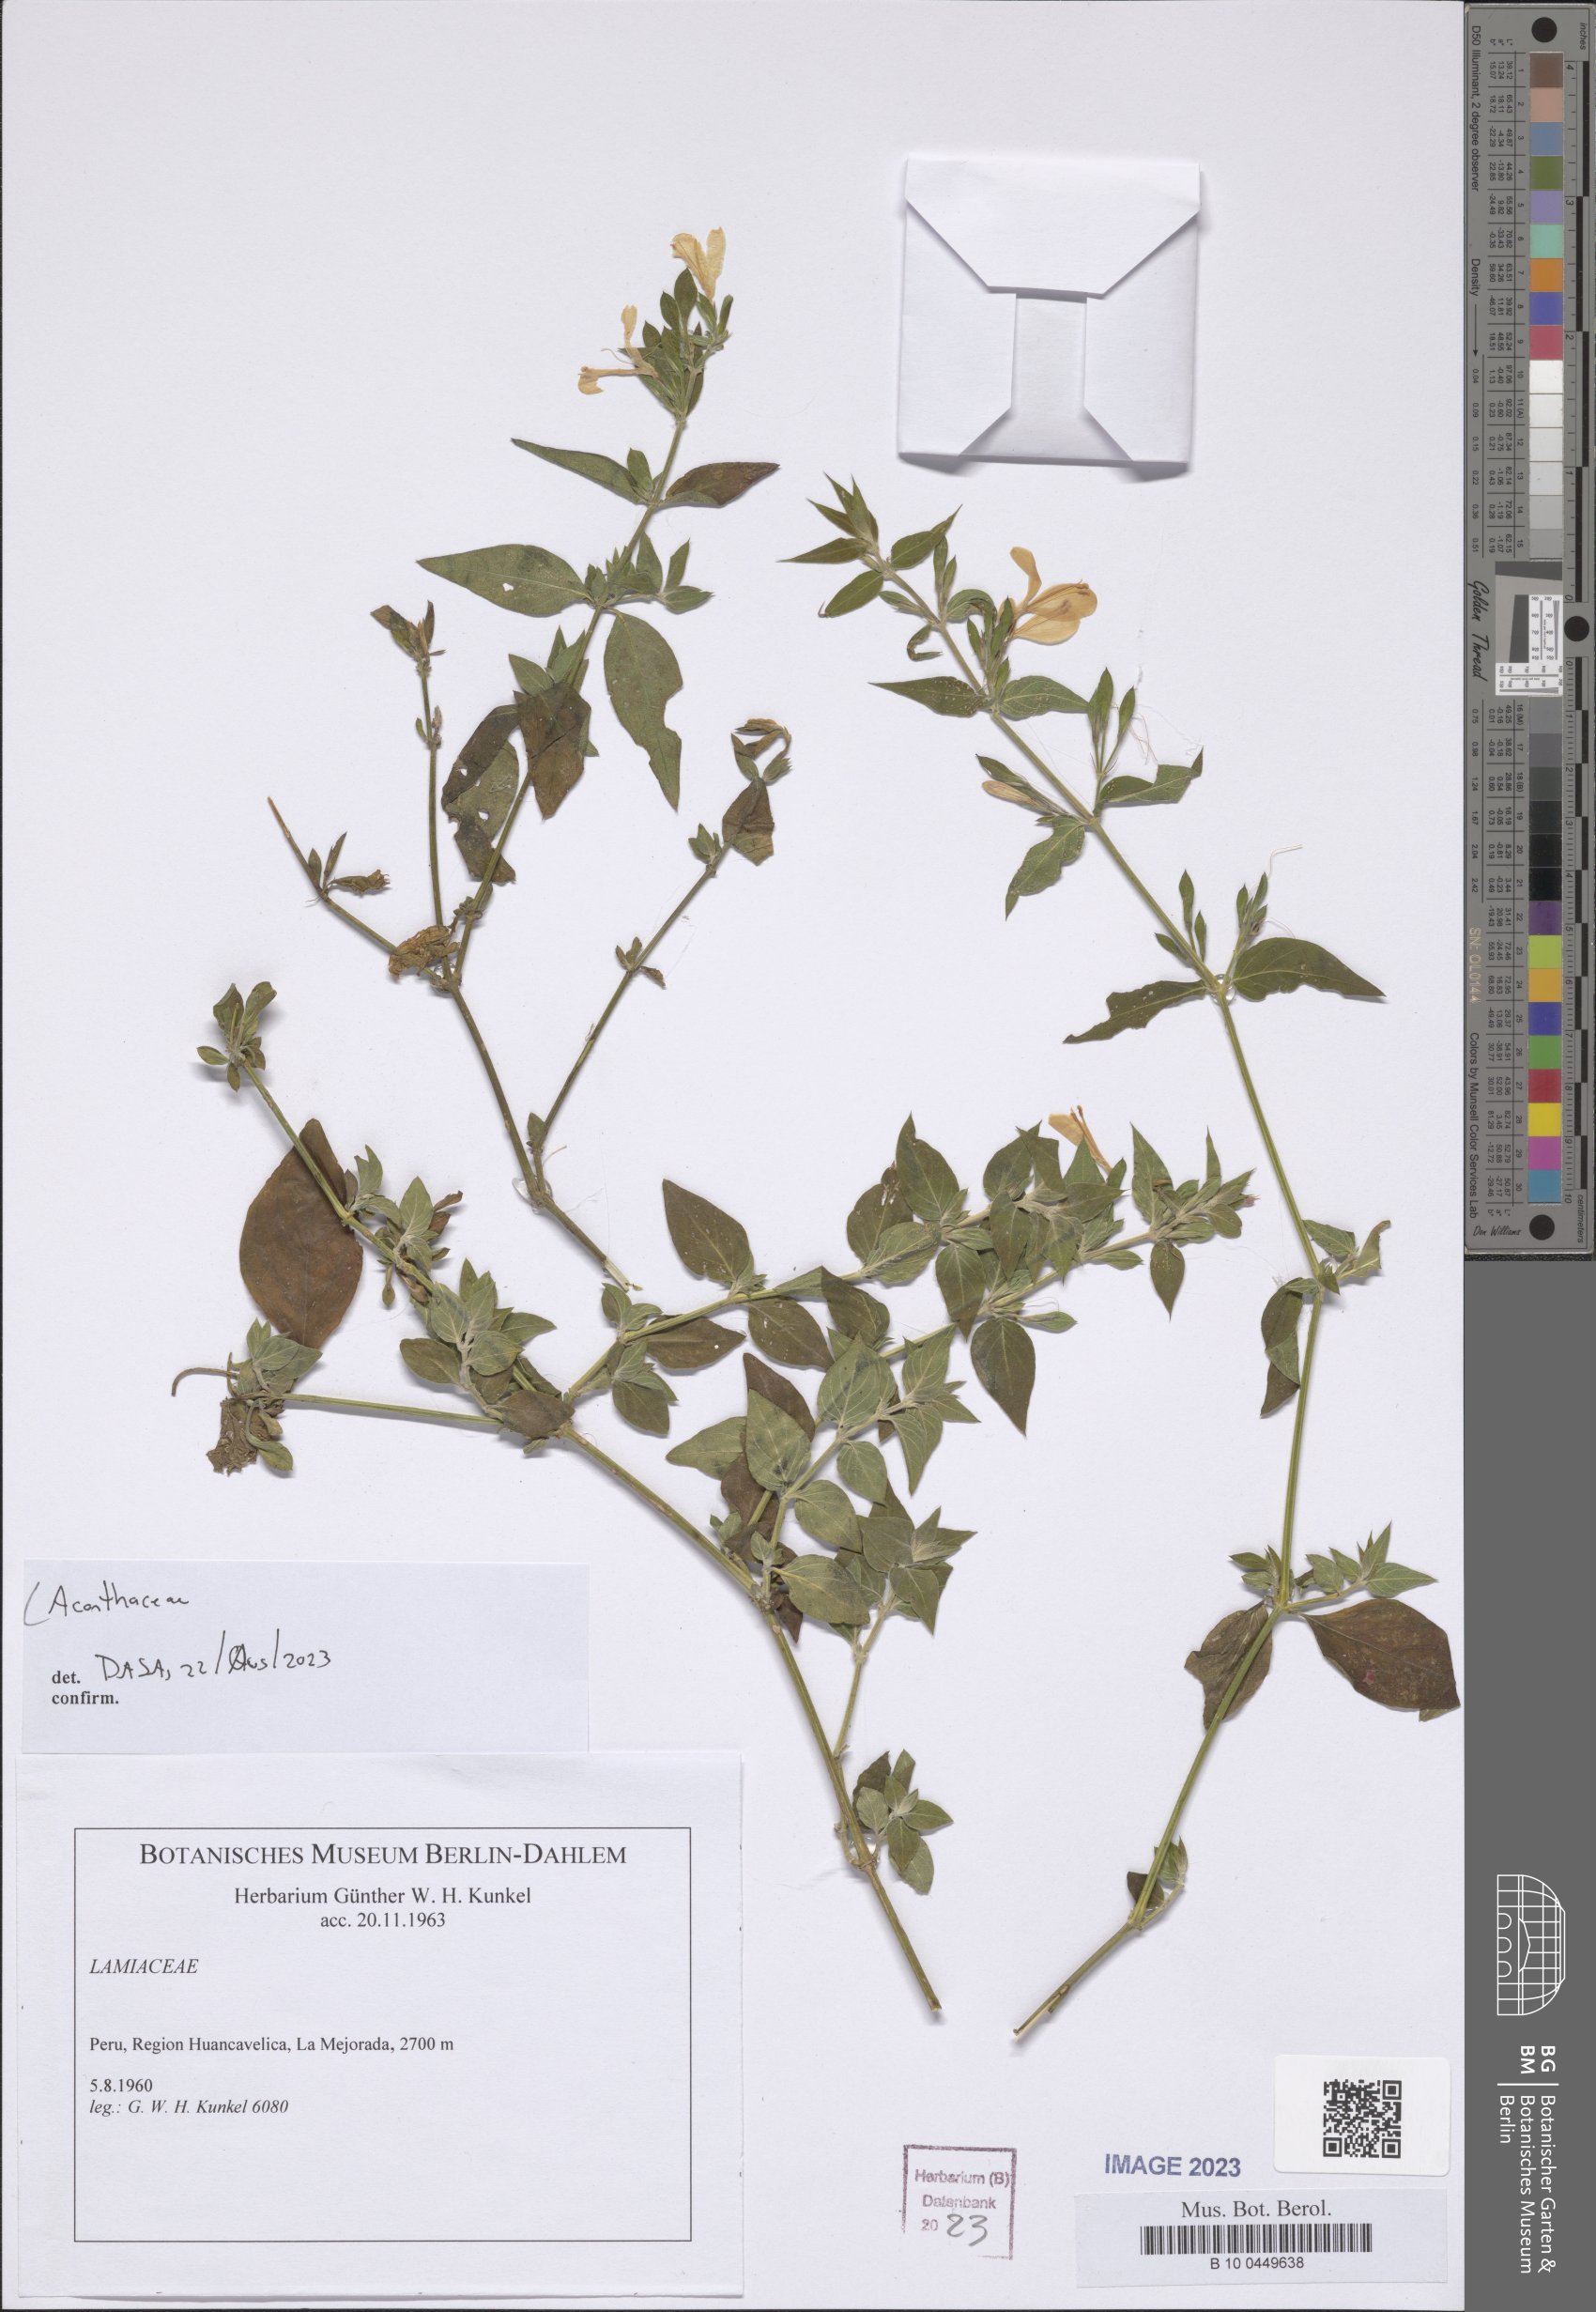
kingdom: Plantae
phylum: Tracheophyta
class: Magnoliopsida
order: Lamiales
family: Acanthaceae
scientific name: Acanthaceae
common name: Acanthaceae
